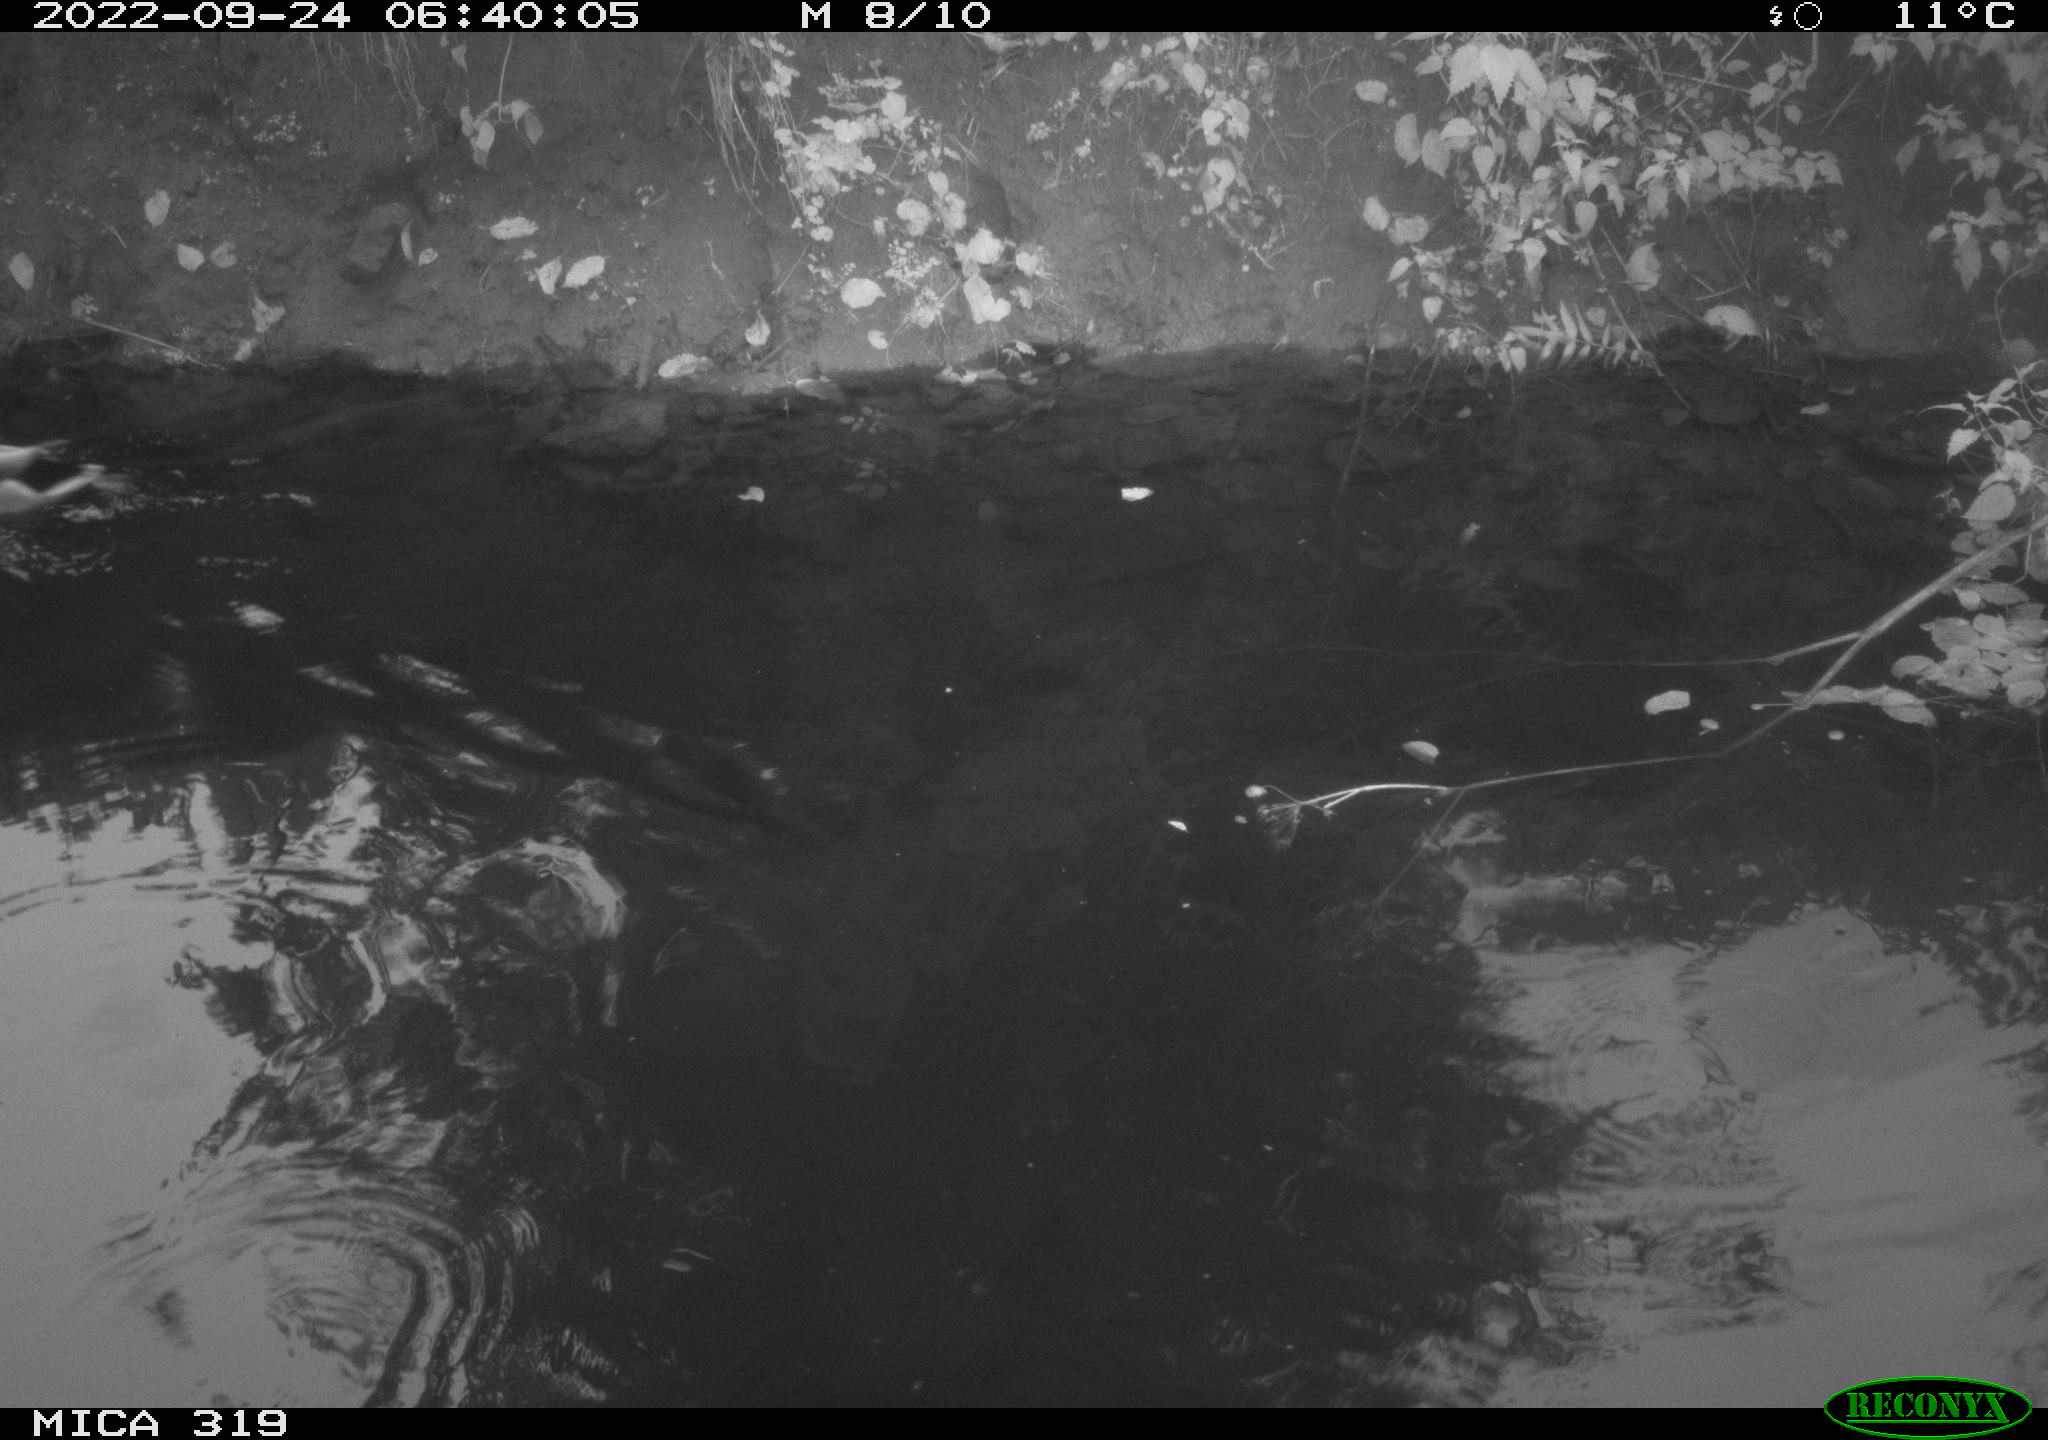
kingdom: Animalia
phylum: Chordata
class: Aves
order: Anseriformes
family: Anatidae
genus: Anas
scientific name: Anas
